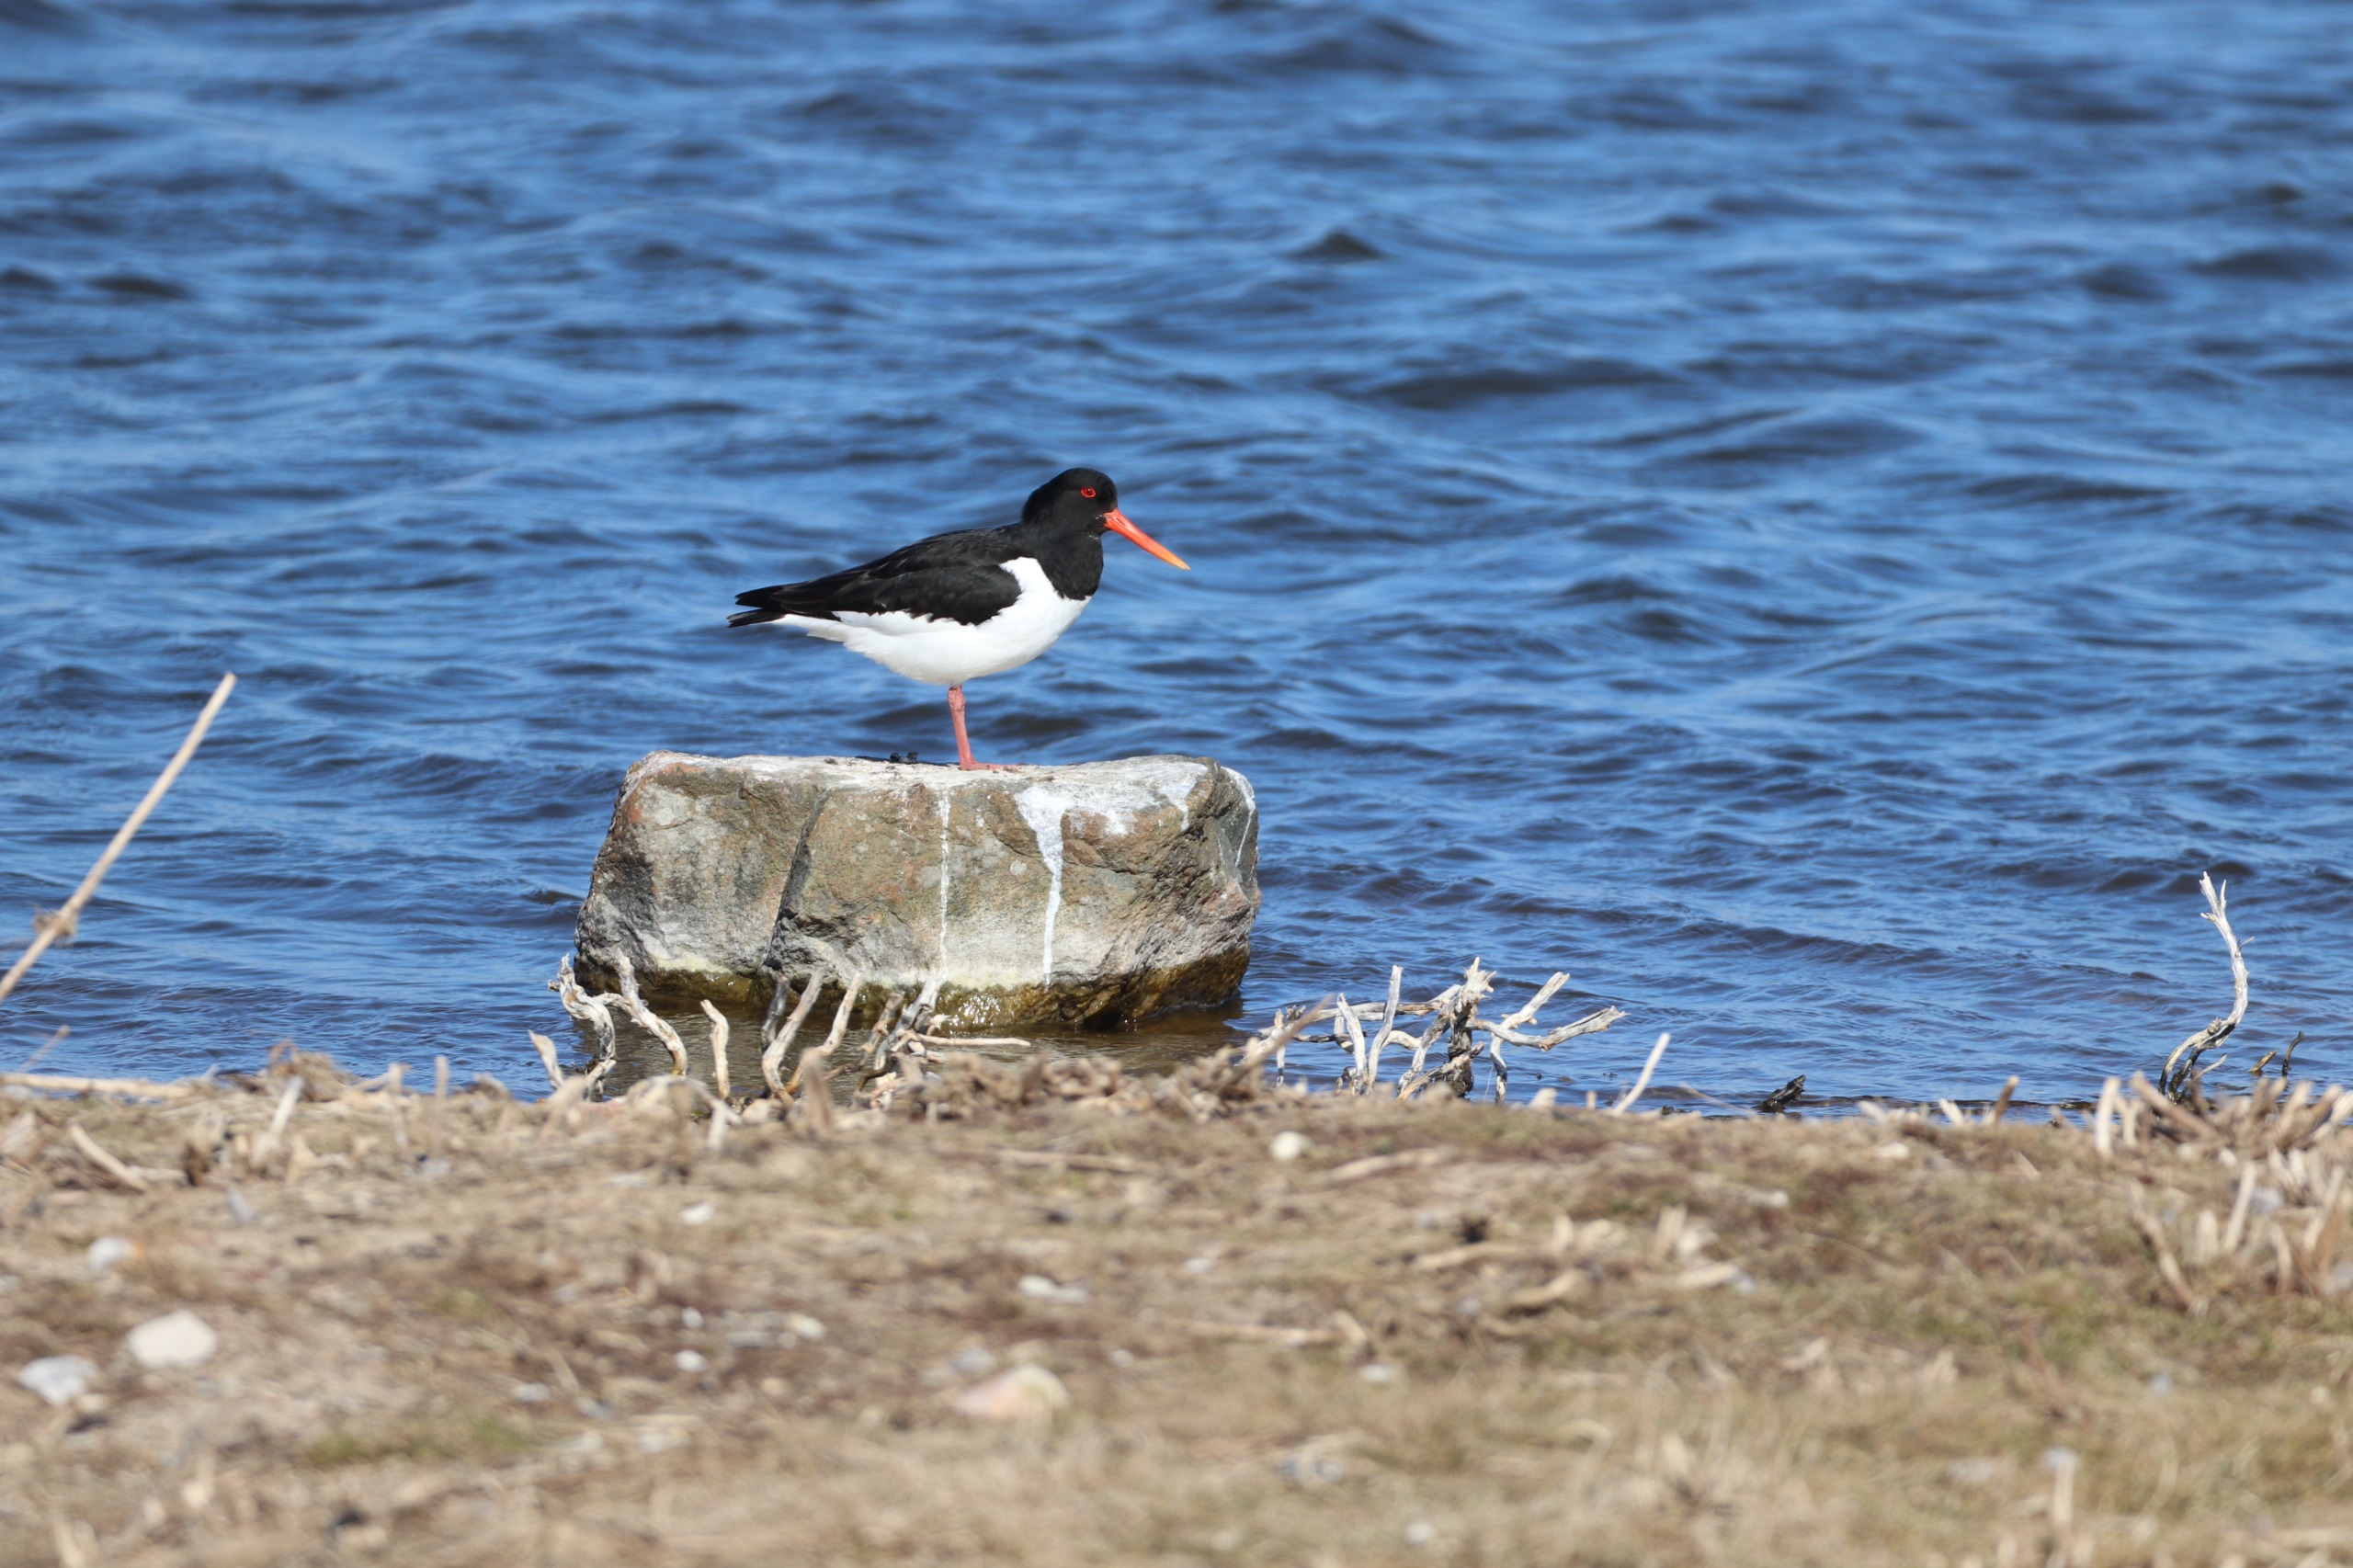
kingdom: Animalia
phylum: Chordata
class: Aves
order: Charadriiformes
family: Haematopodidae
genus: Haematopus
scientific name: Haematopus ostralegus
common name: Strandskade
